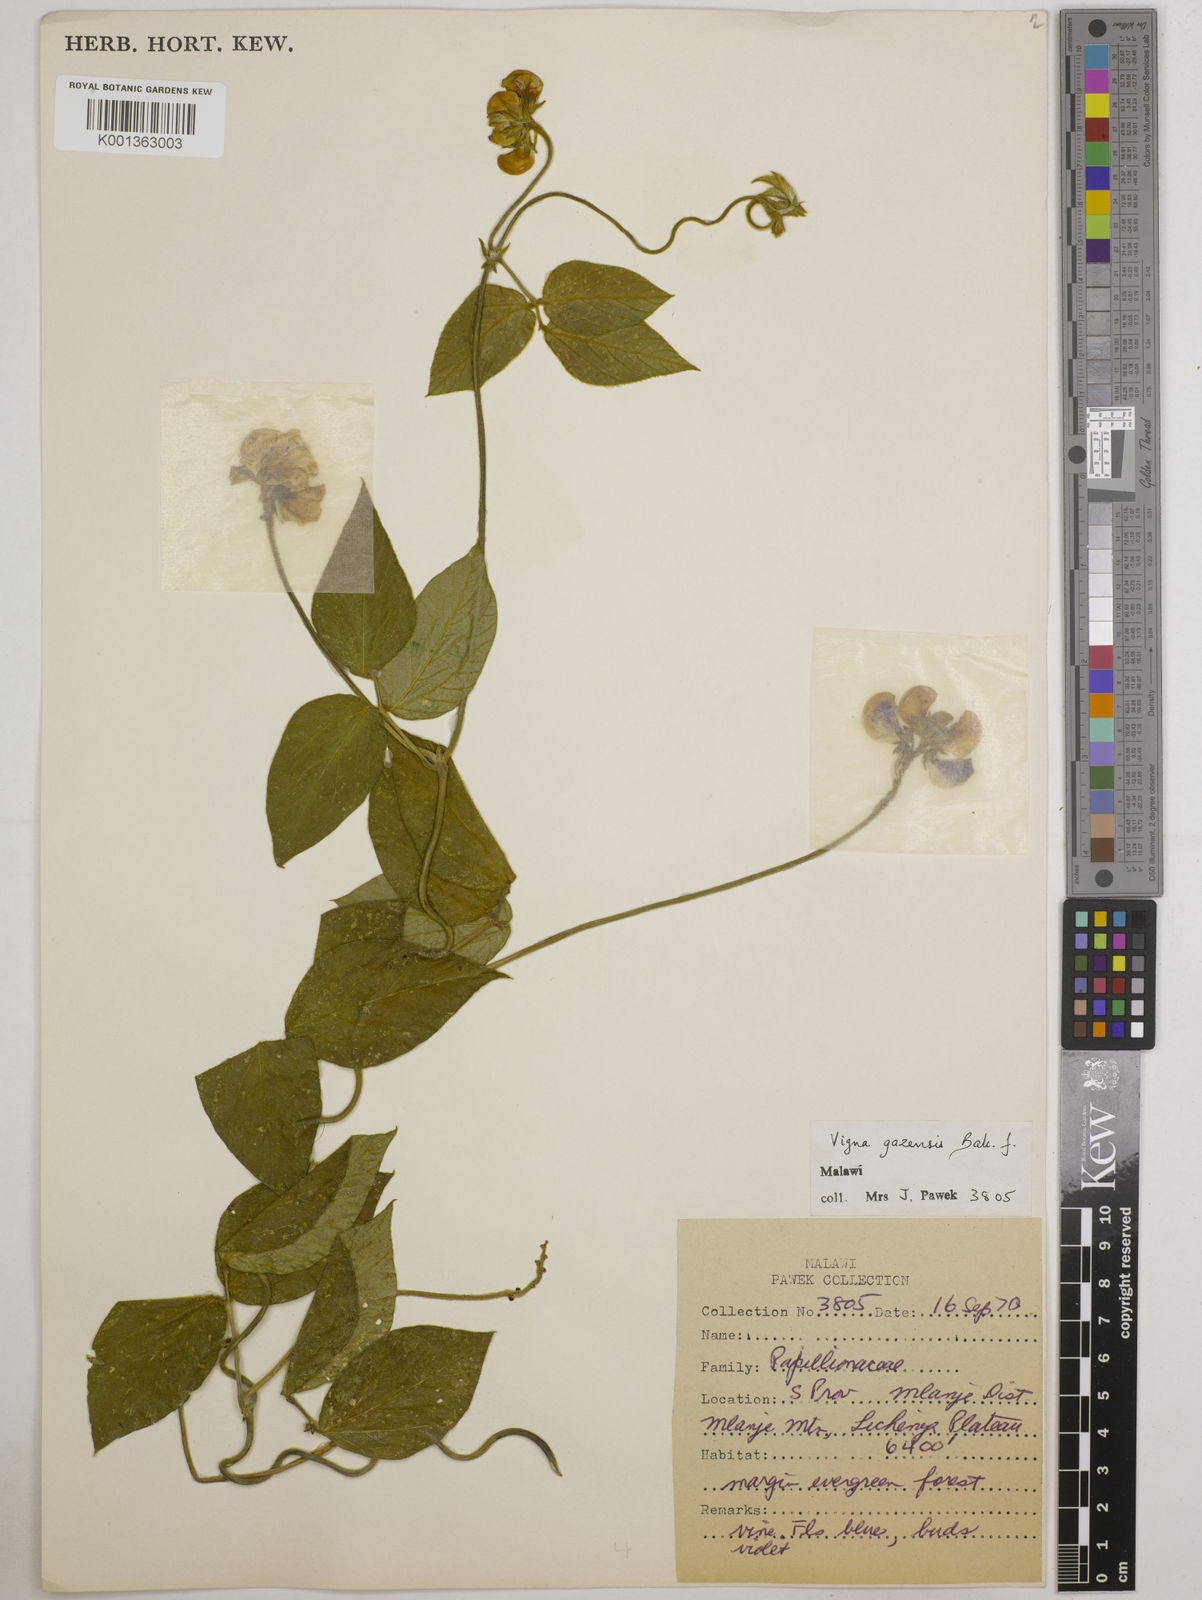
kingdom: Plantae
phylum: Tracheophyta
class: Magnoliopsida
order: Fabales
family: Fabaceae
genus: Vigna
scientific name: Vigna gazensis
